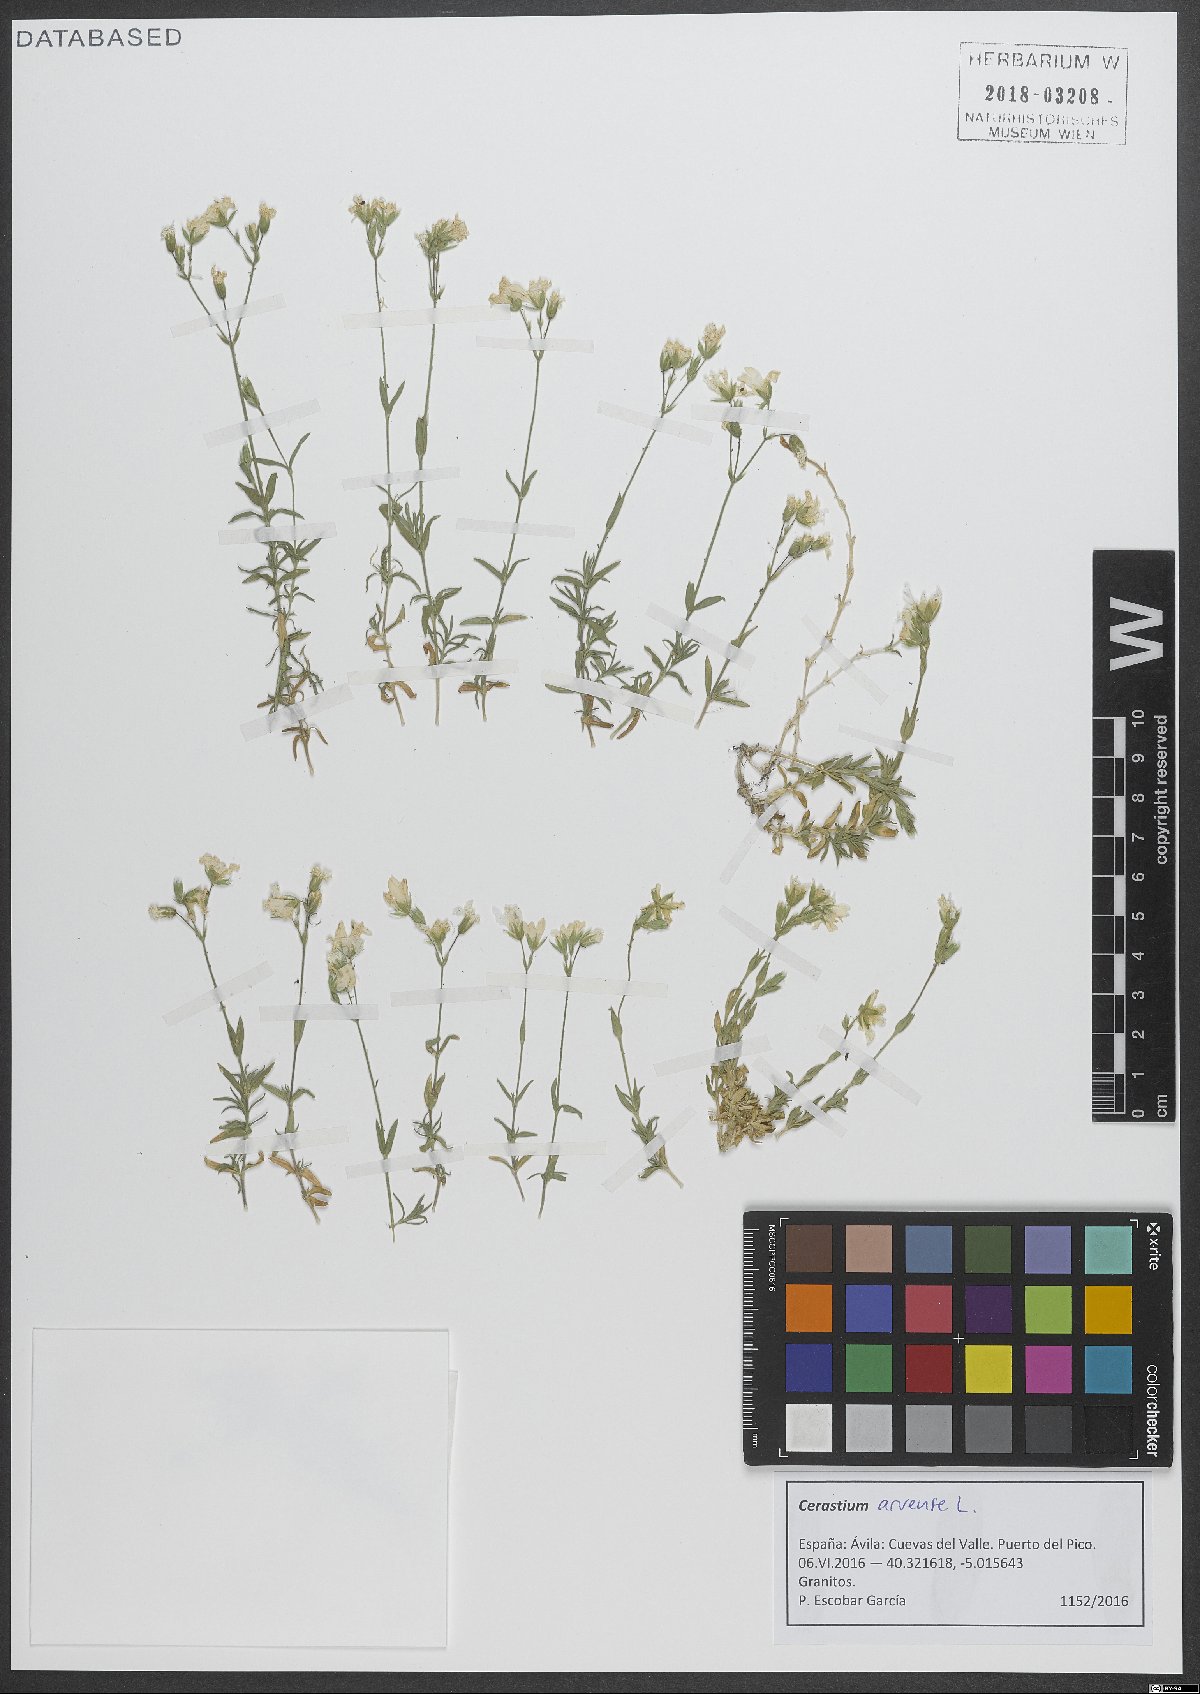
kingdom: Plantae
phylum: Tracheophyta
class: Magnoliopsida
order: Caryophyllales
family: Caryophyllaceae
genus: Cerastium
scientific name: Cerastium arvense
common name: Field mouse-ear
